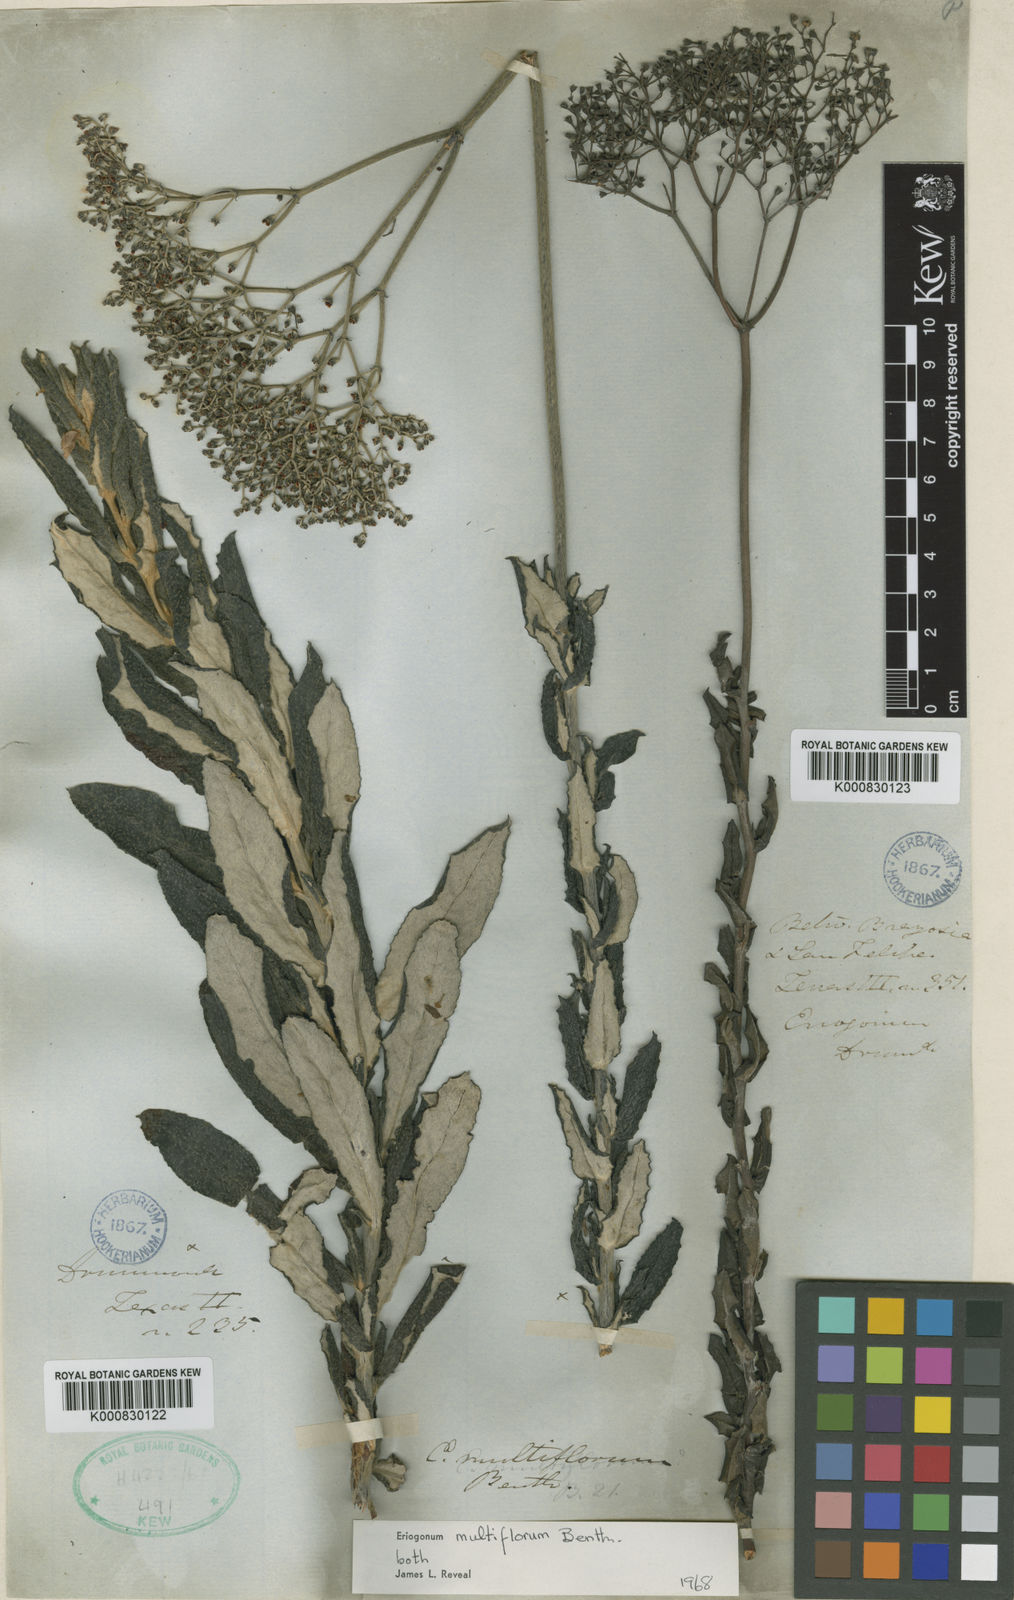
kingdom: Plantae
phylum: Tracheophyta
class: Magnoliopsida
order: Caryophyllales
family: Polygonaceae
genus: Eriogonum
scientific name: Eriogonum multiflorum
